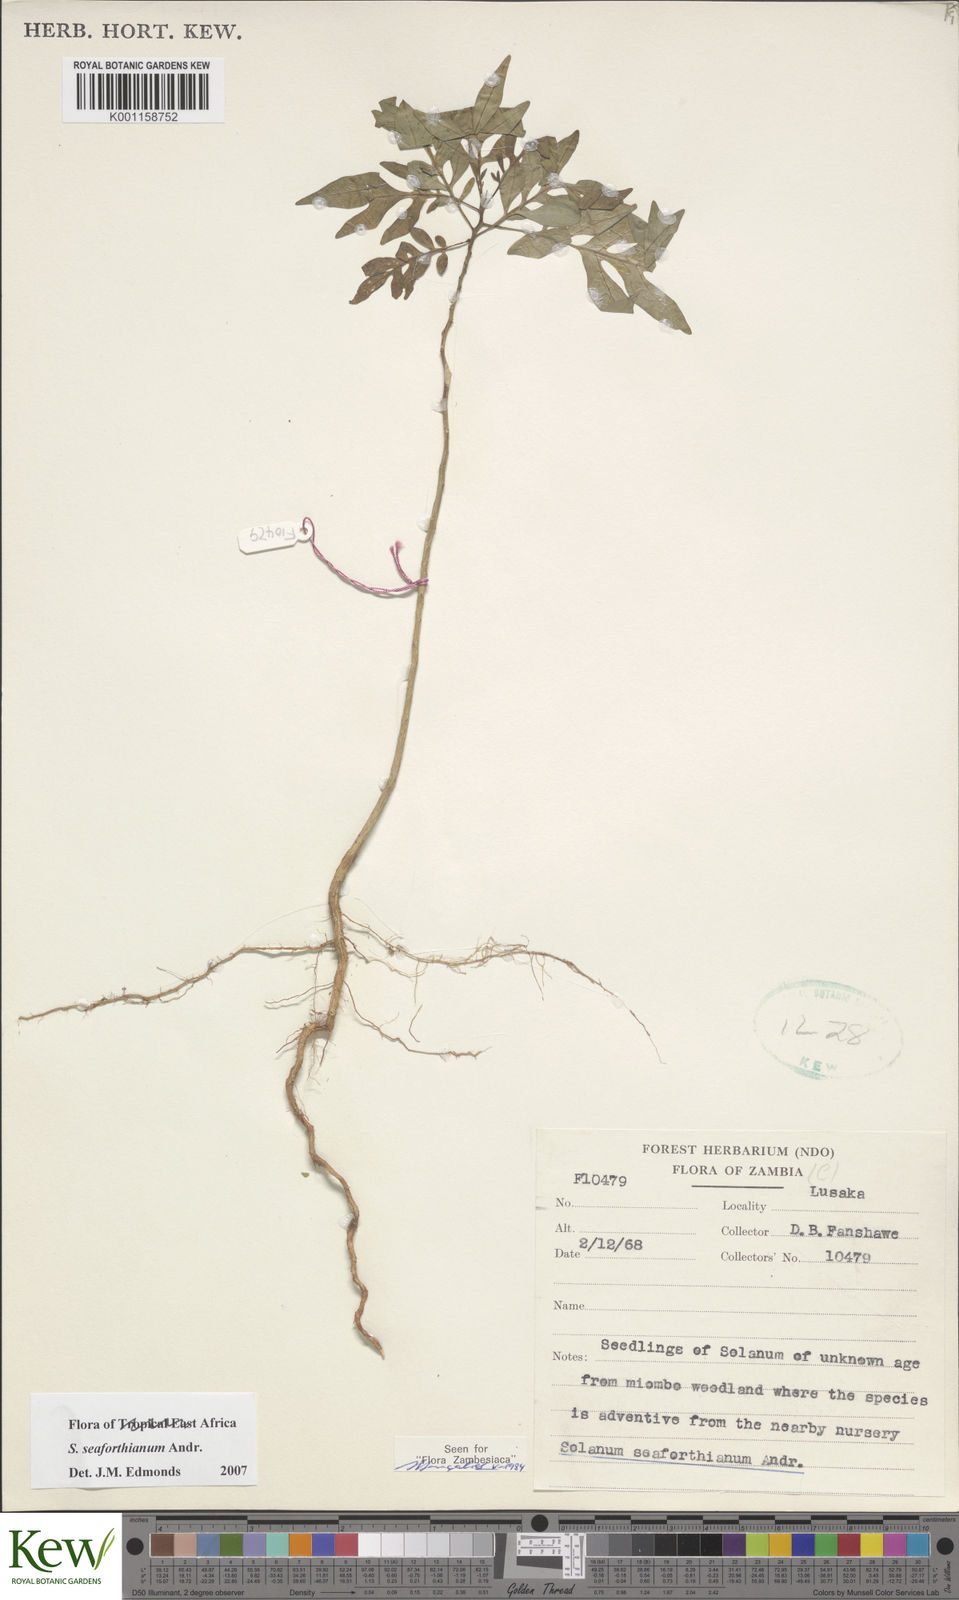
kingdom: Plantae
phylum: Tracheophyta
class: Magnoliopsida
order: Solanales
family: Solanaceae
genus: Solanum
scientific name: Solanum seaforthianum
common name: Brazilian nightshade
